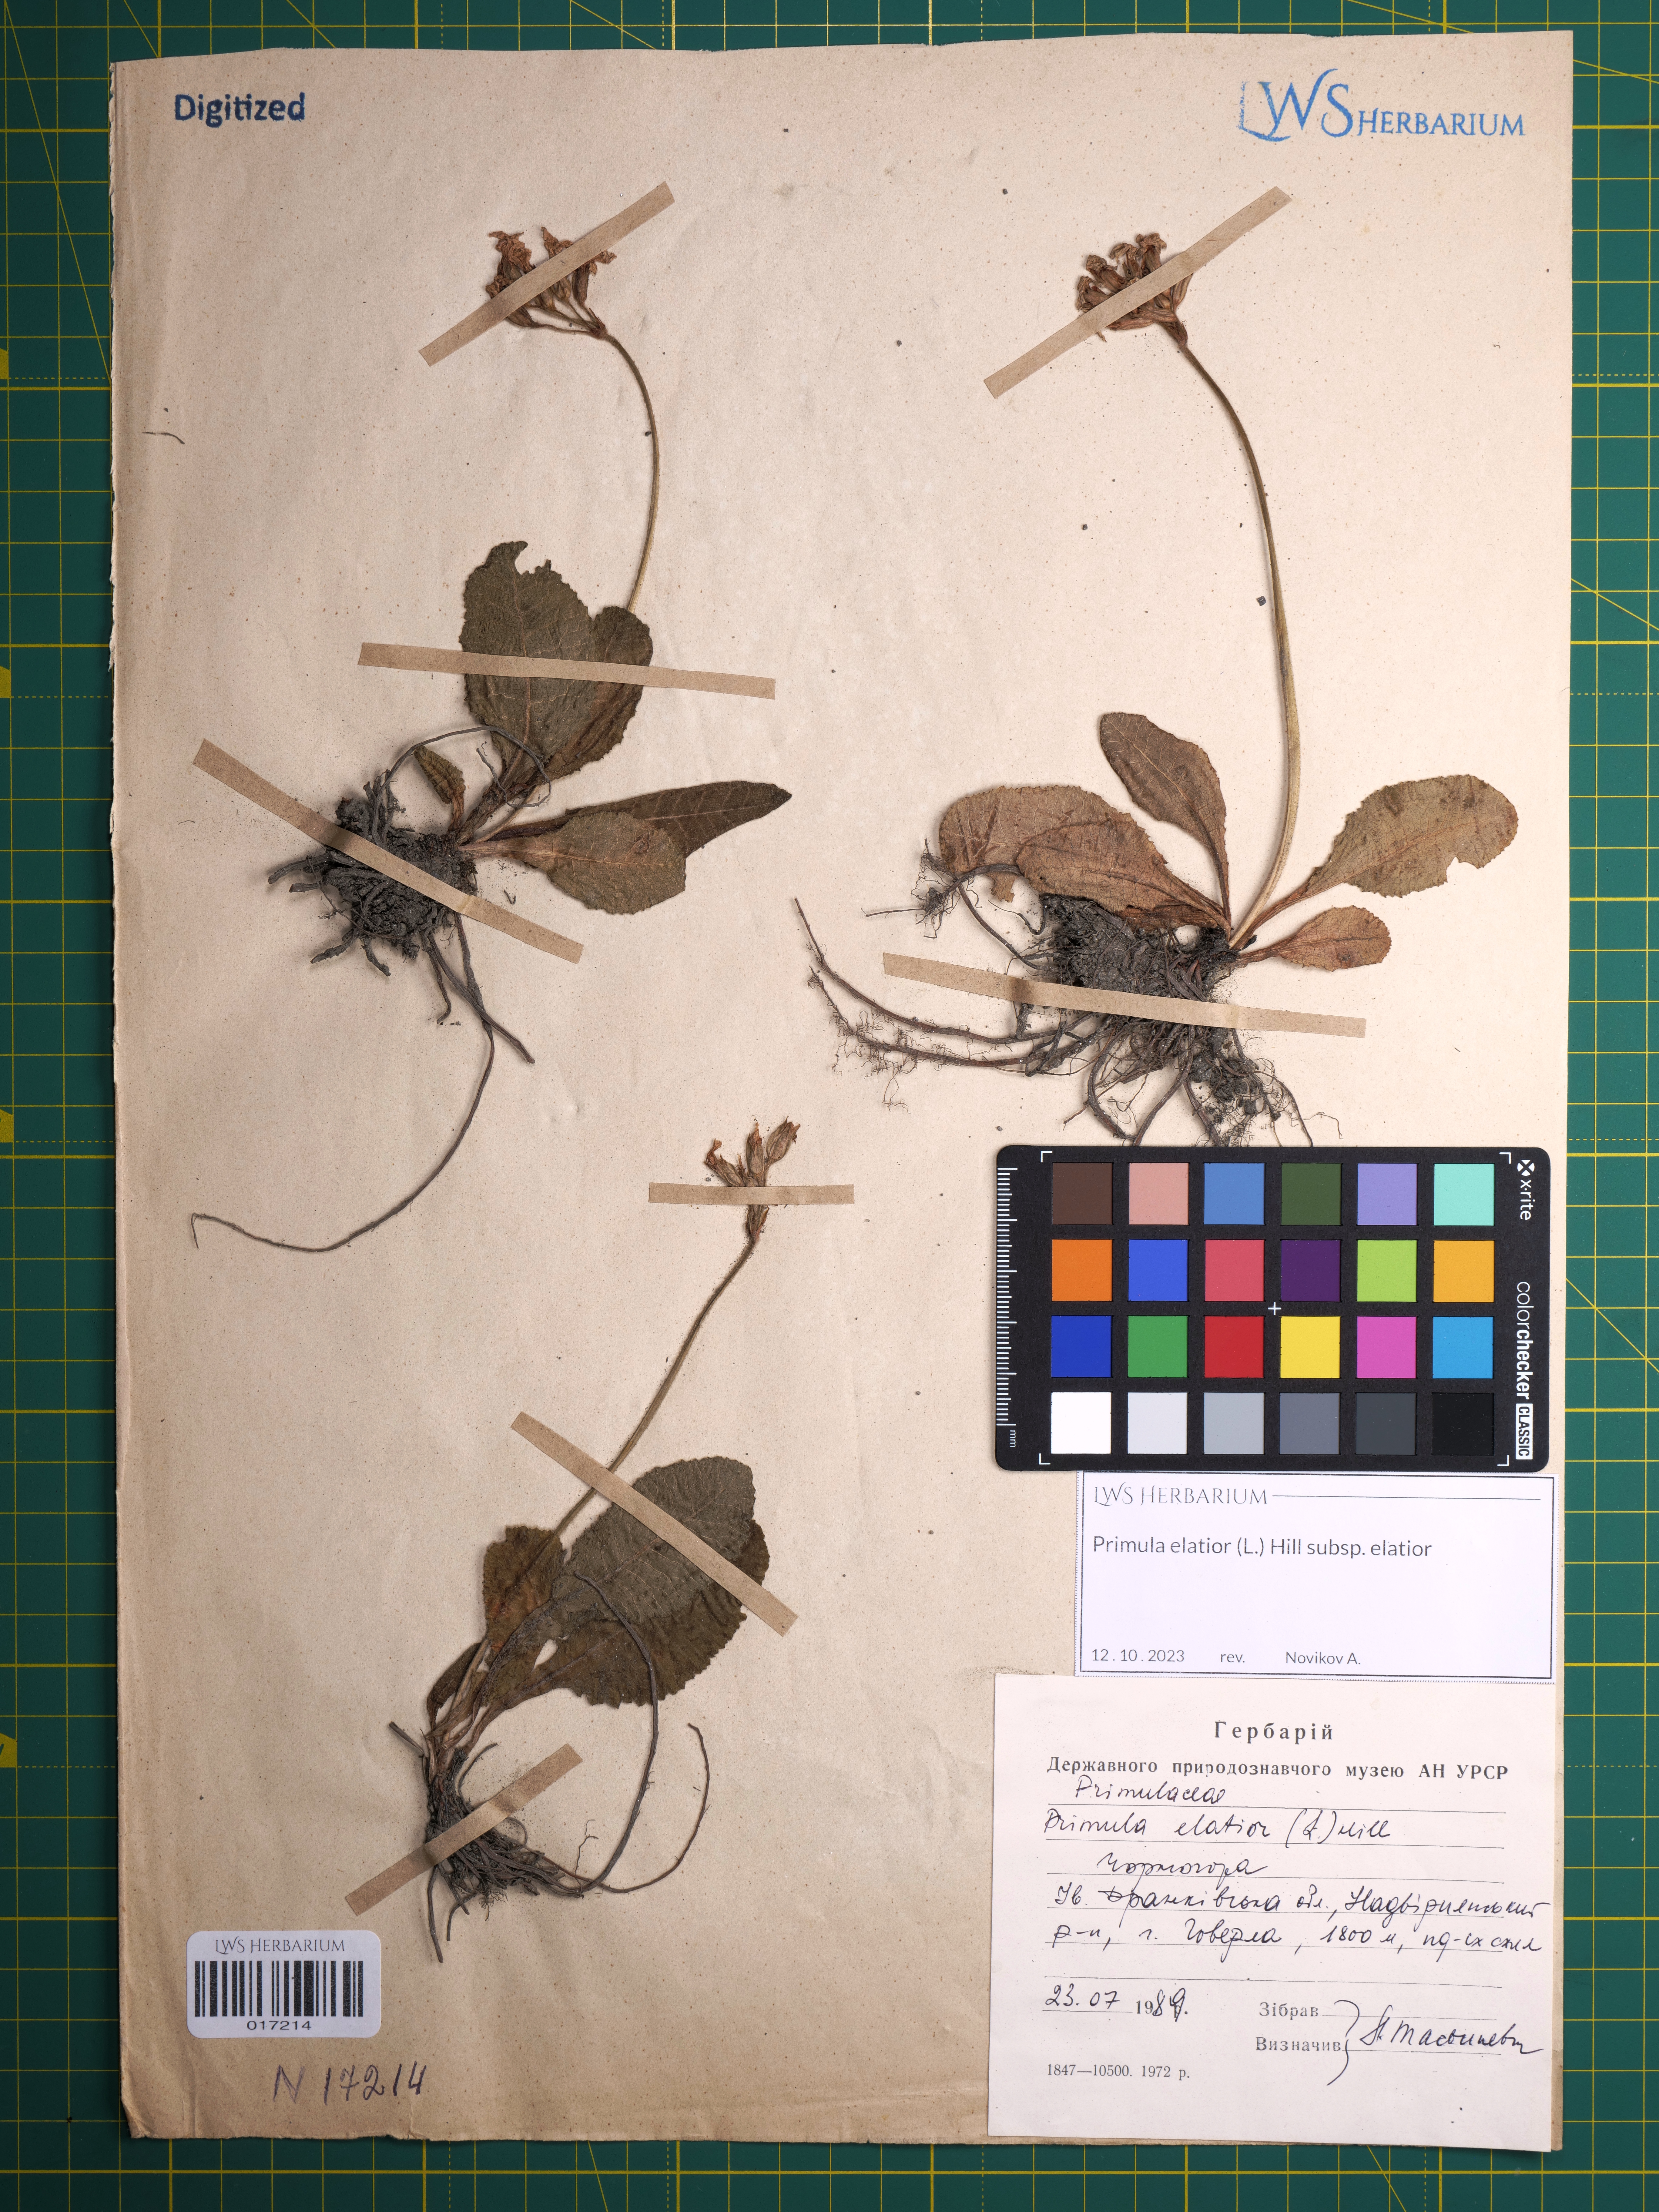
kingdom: Plantae
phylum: Tracheophyta
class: Magnoliopsida
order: Ericales
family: Primulaceae
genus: Primula
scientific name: Primula elatior
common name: Oxlip
